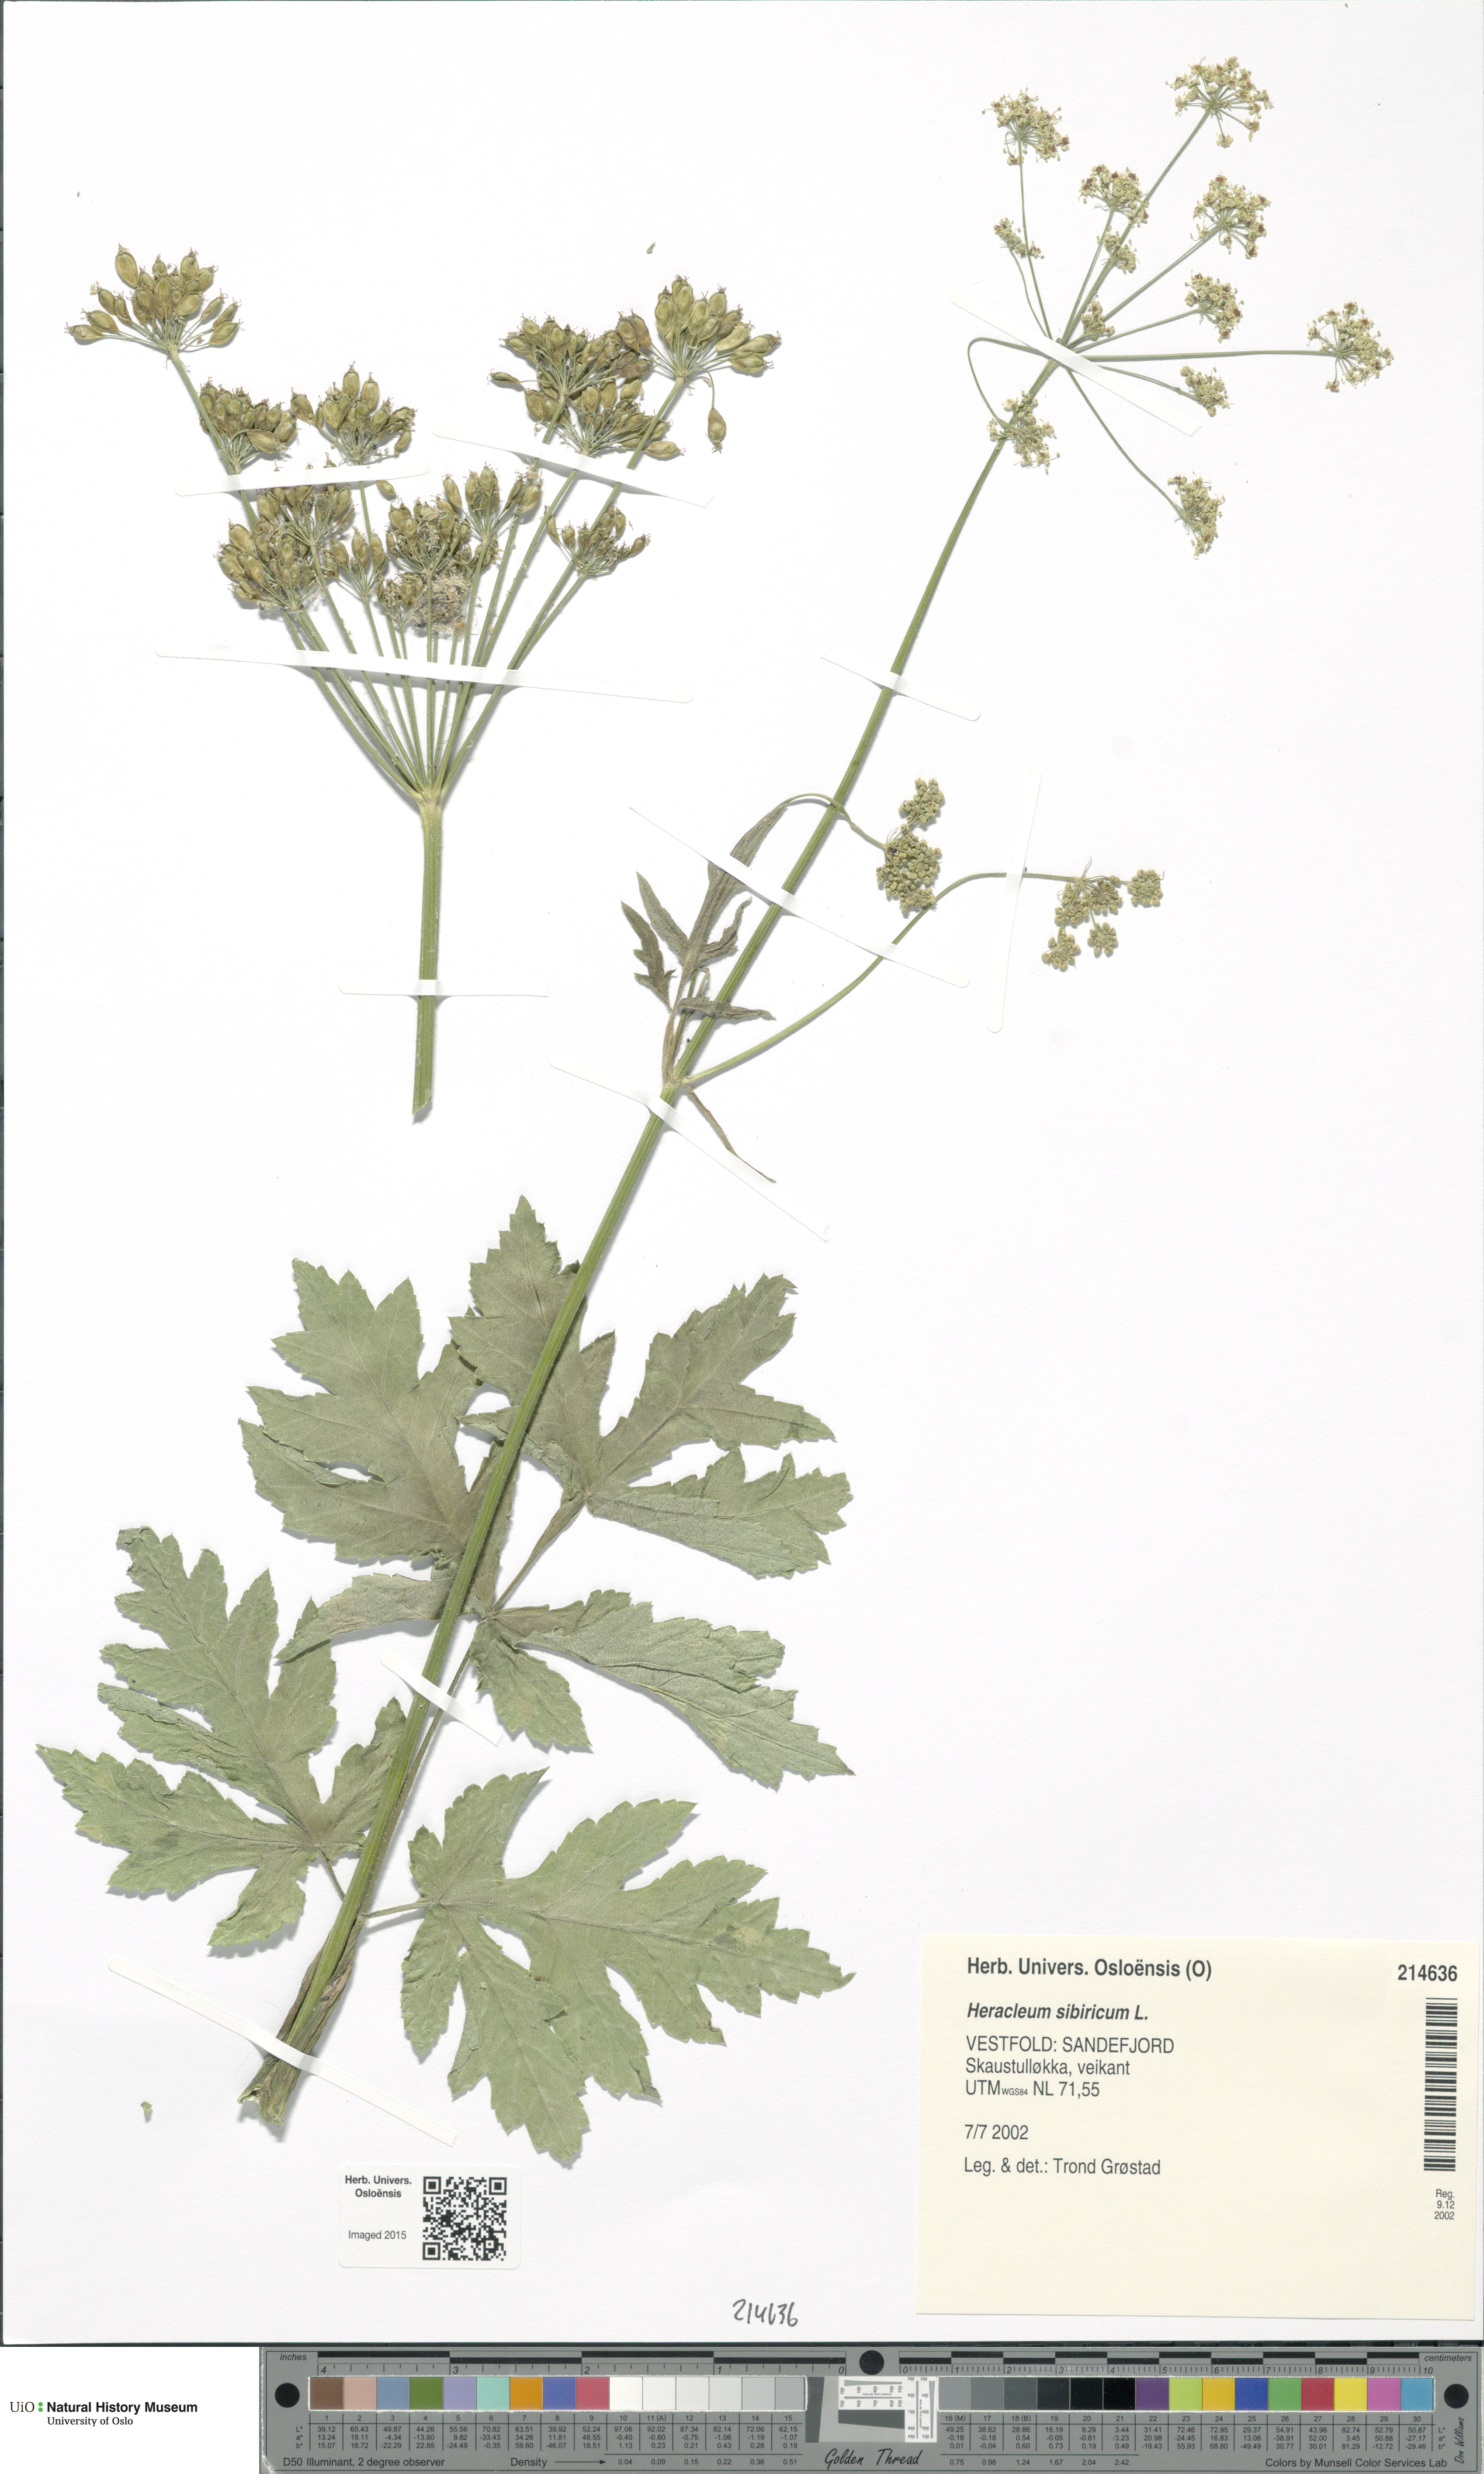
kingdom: Plantae
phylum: Tracheophyta
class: Magnoliopsida
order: Apiales
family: Apiaceae
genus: Heracleum
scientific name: Heracleum sphondylium
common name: Hogweed
